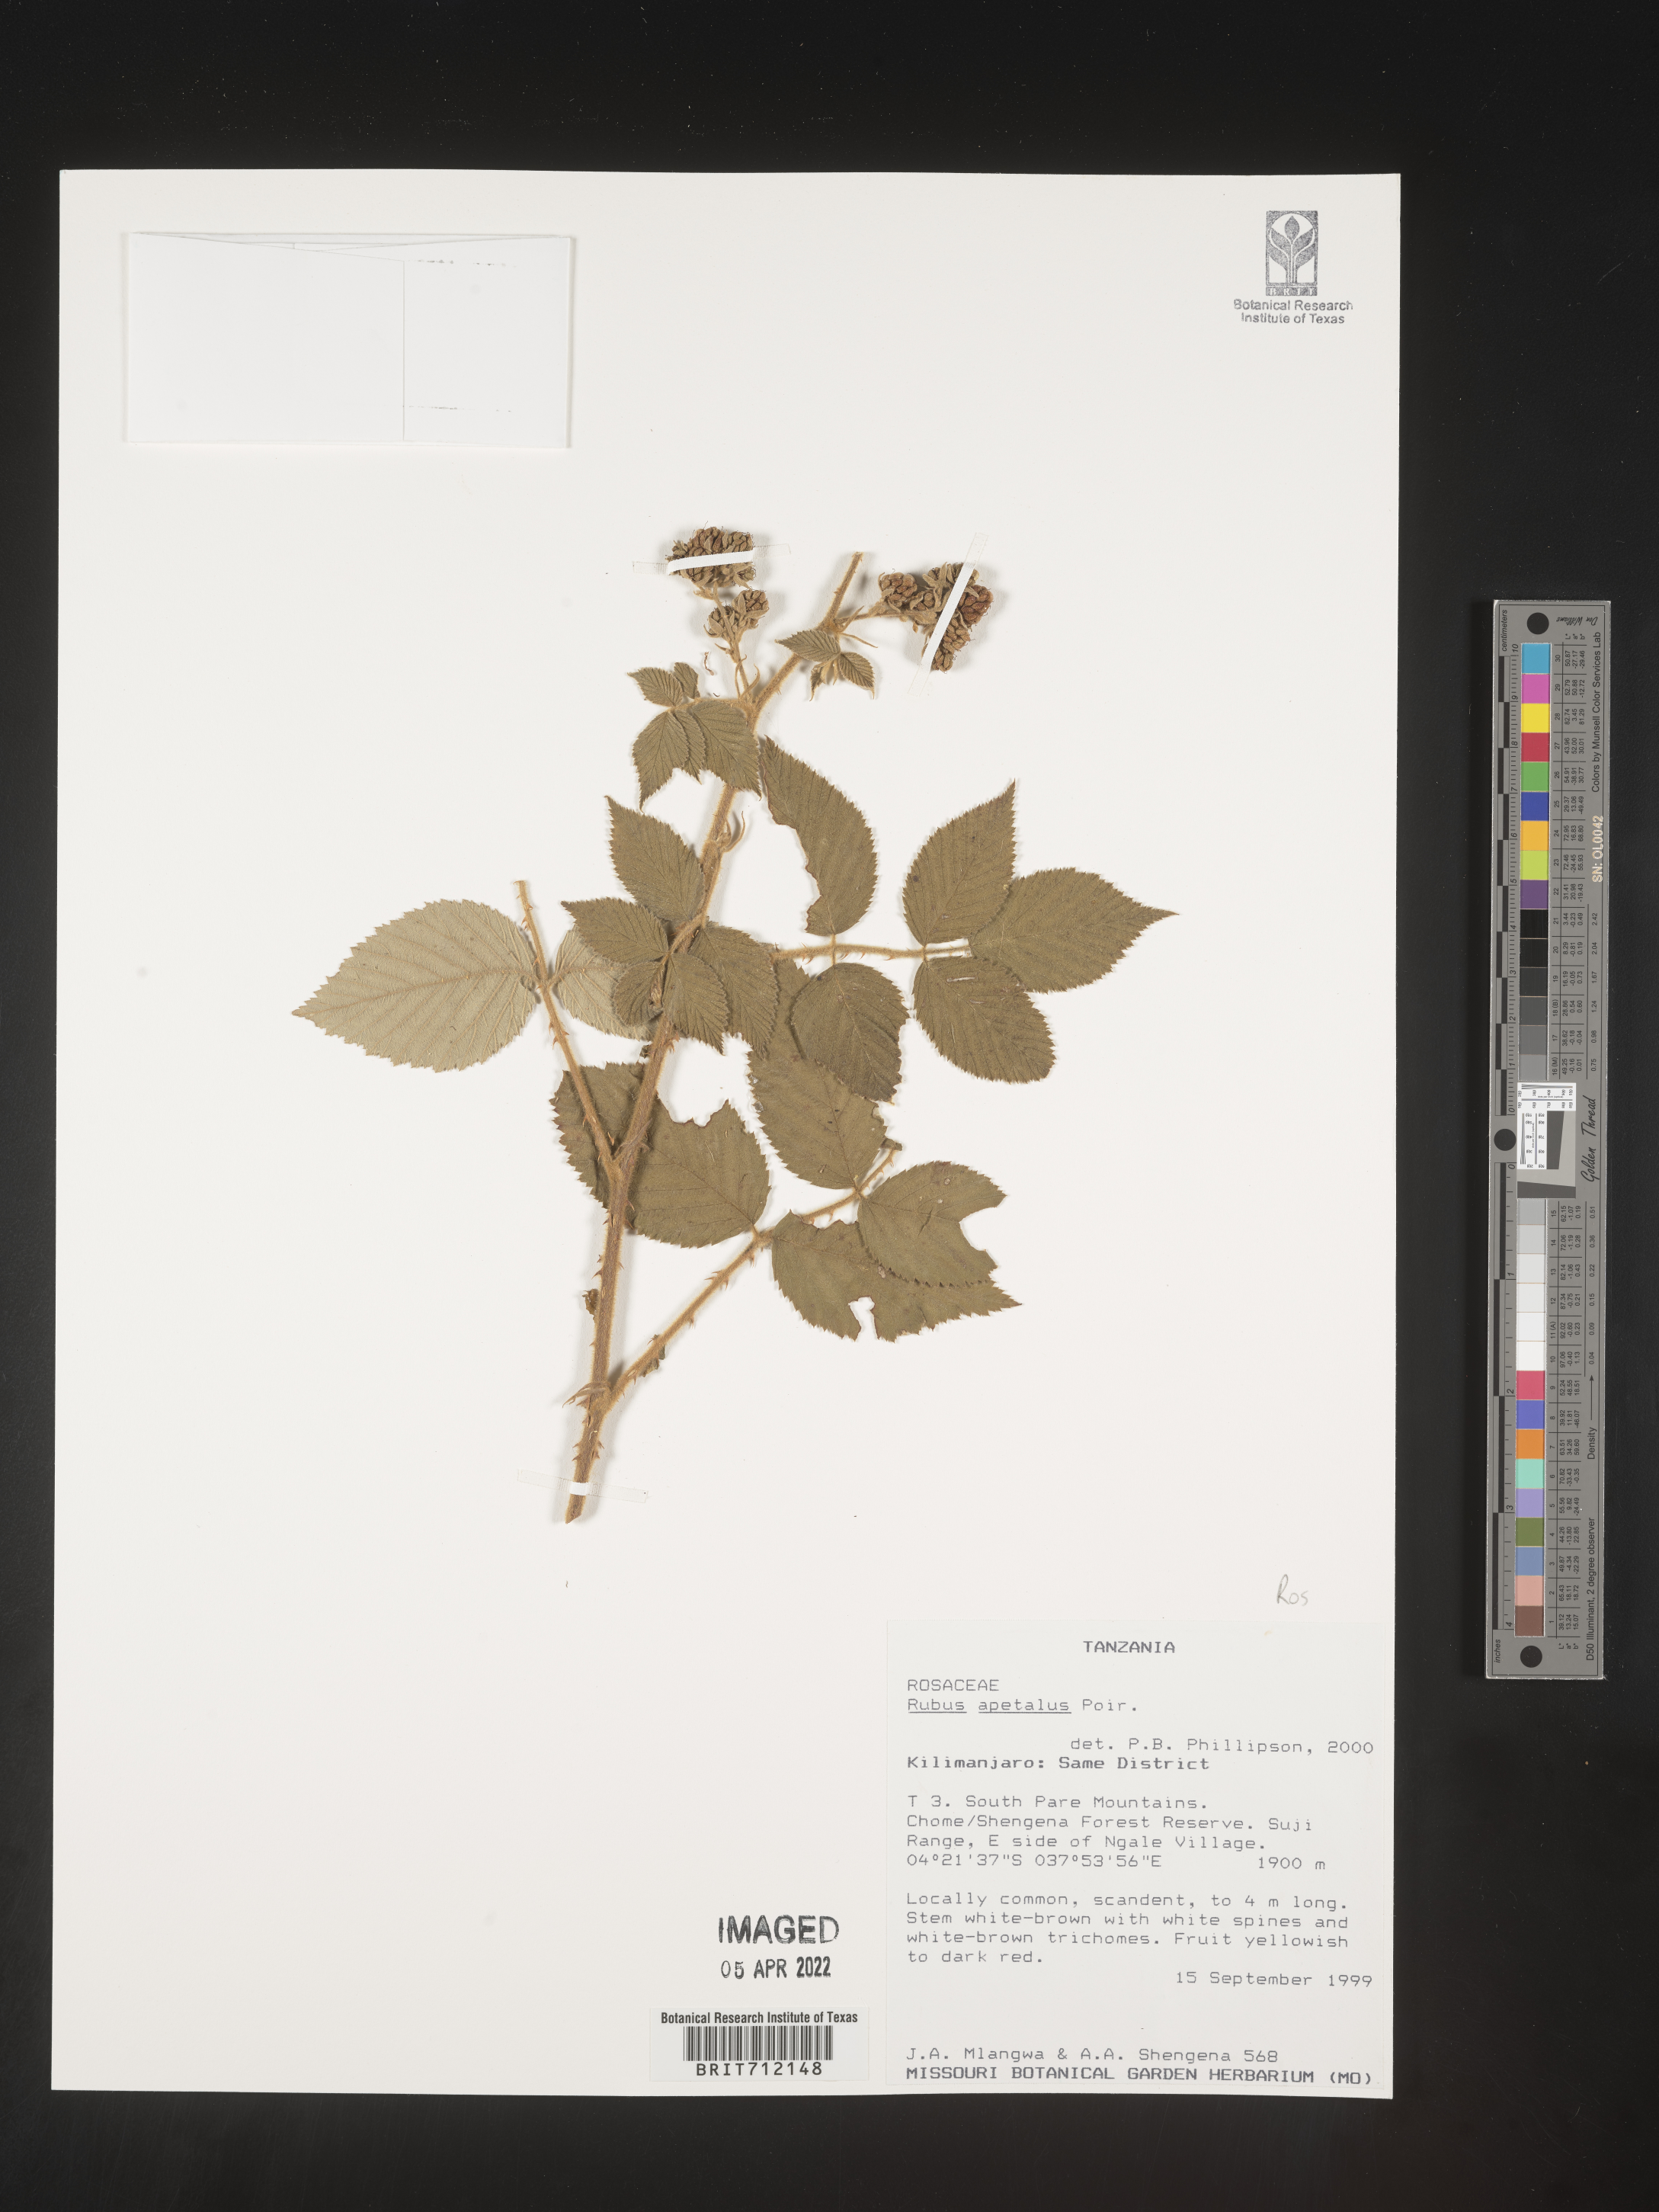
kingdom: Plantae
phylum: Tracheophyta
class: Magnoliopsida
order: Rosales
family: Rosaceae
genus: Rubus
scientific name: Rubus
